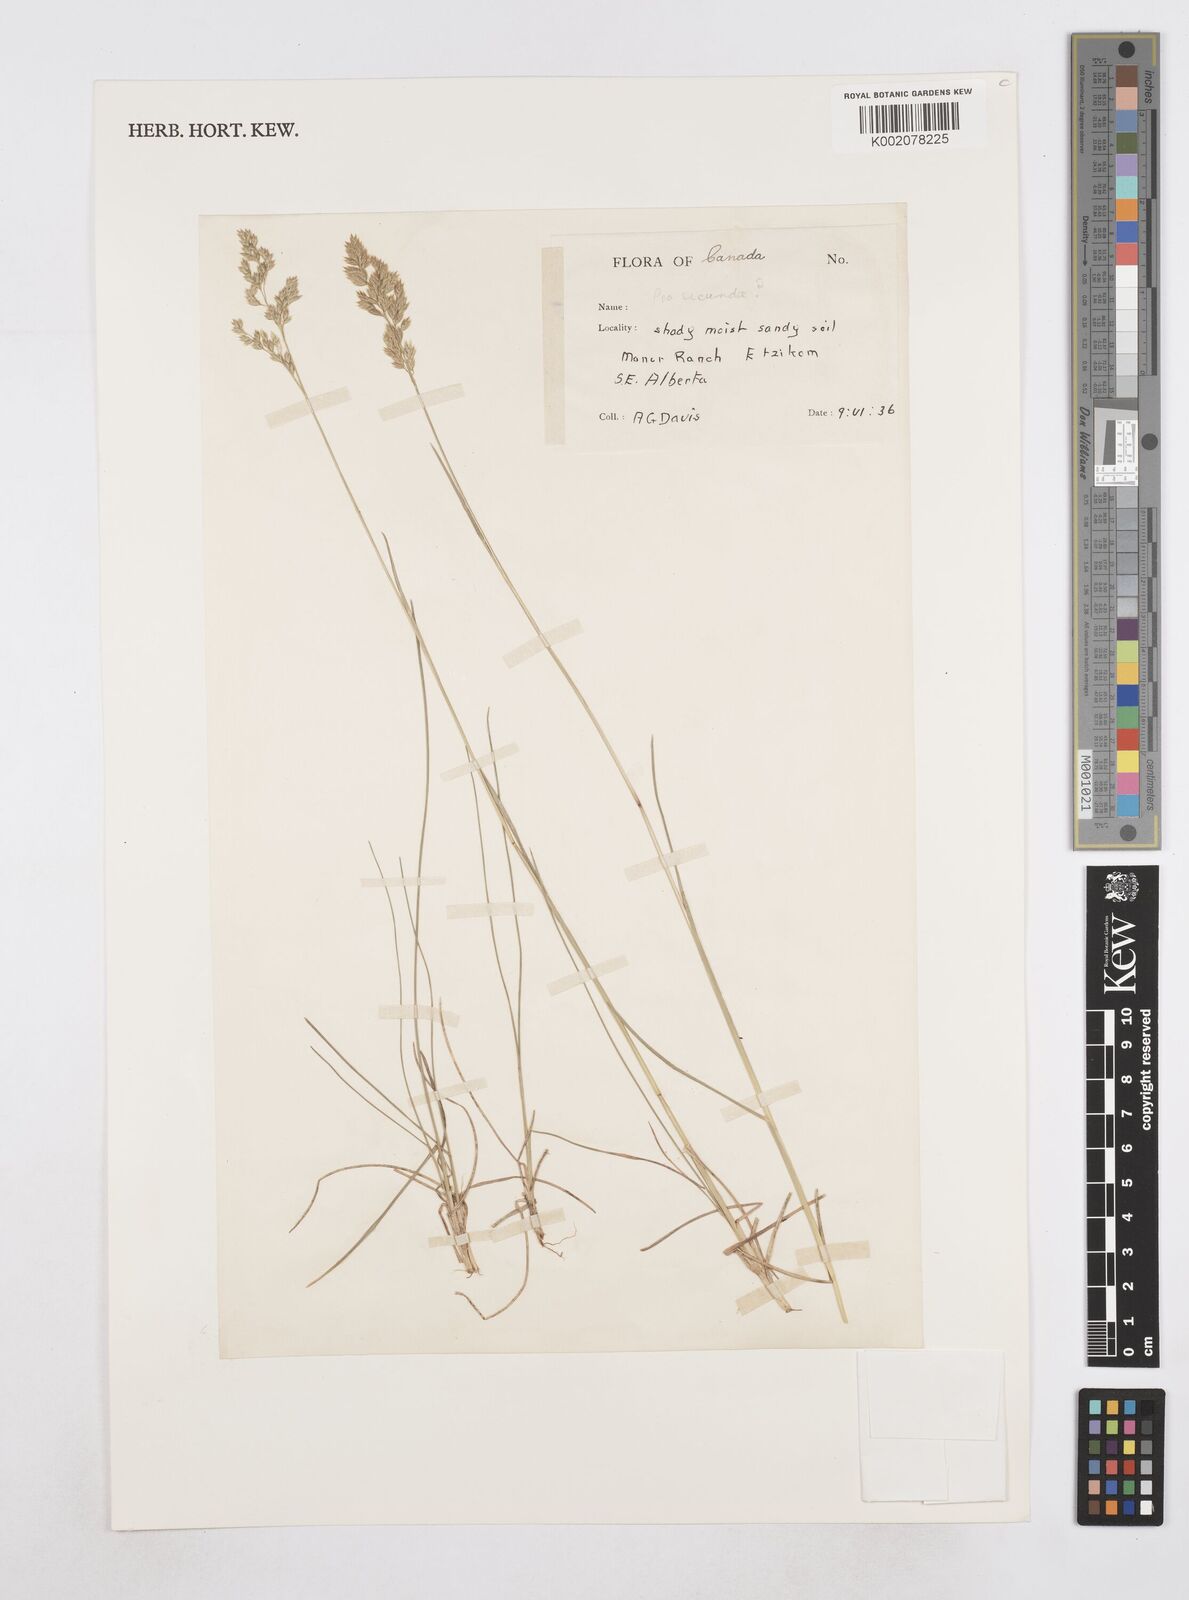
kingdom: Plantae
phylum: Tracheophyta
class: Liliopsida
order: Poales
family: Poaceae
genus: Poa
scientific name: Poa
